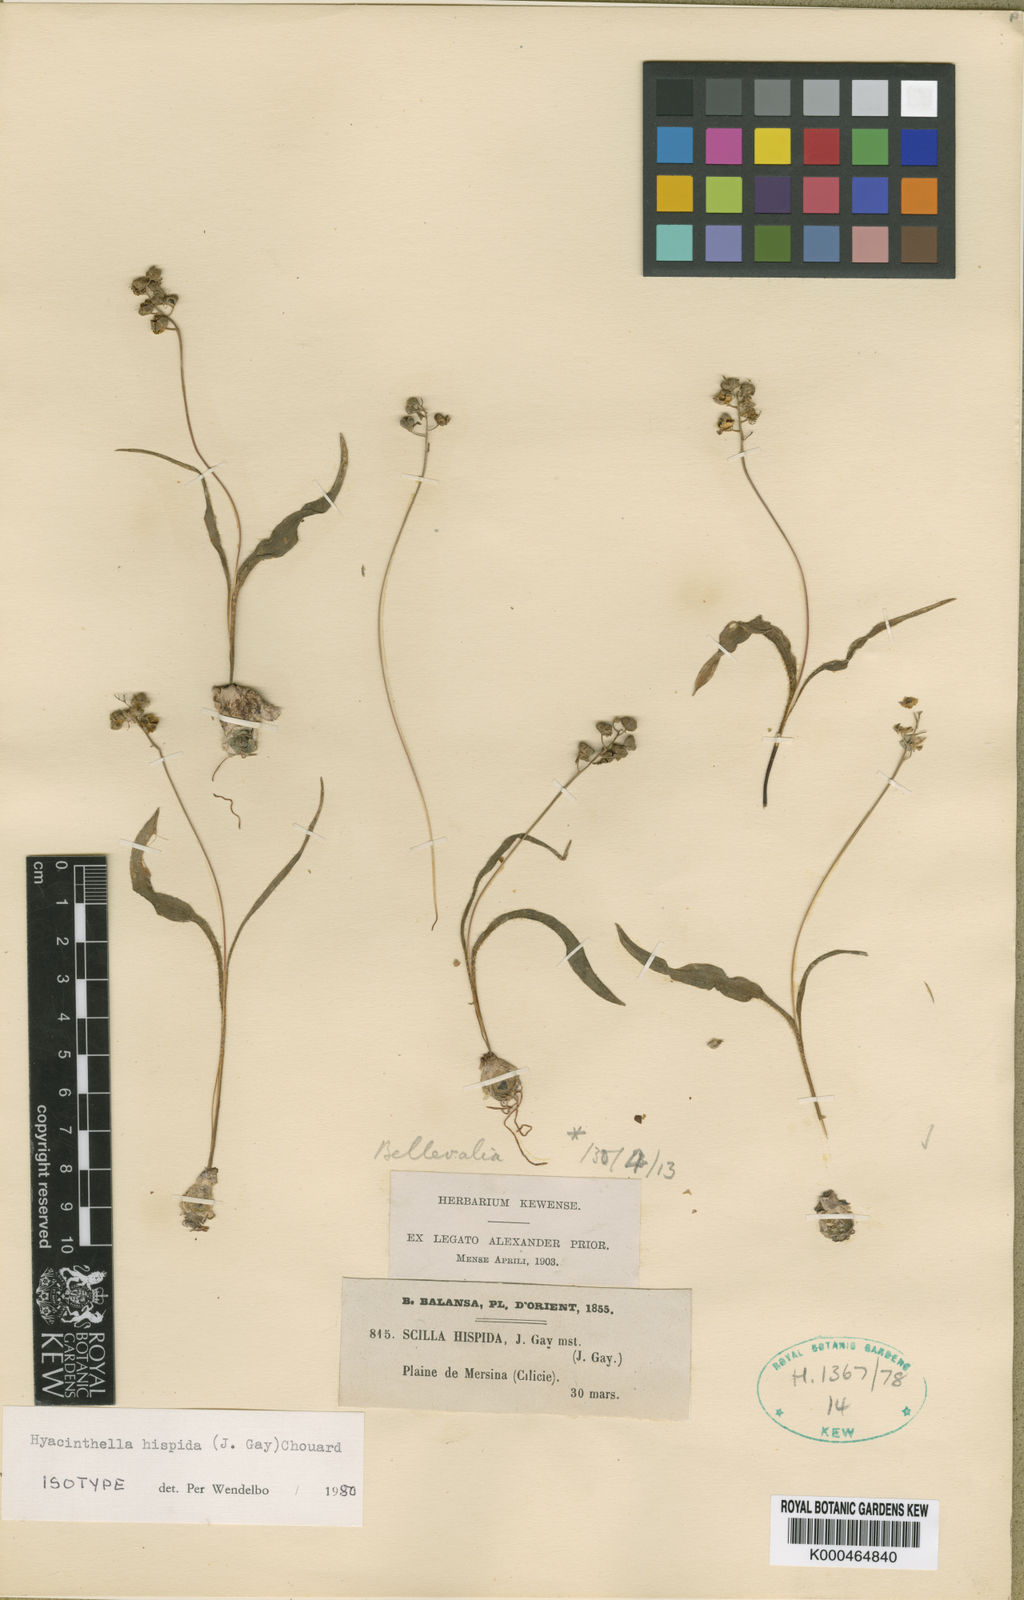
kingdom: Plantae
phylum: Tracheophyta
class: Liliopsida
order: Asparagales
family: Asparagaceae
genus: Hyacinthella
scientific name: Hyacinthella lineata
